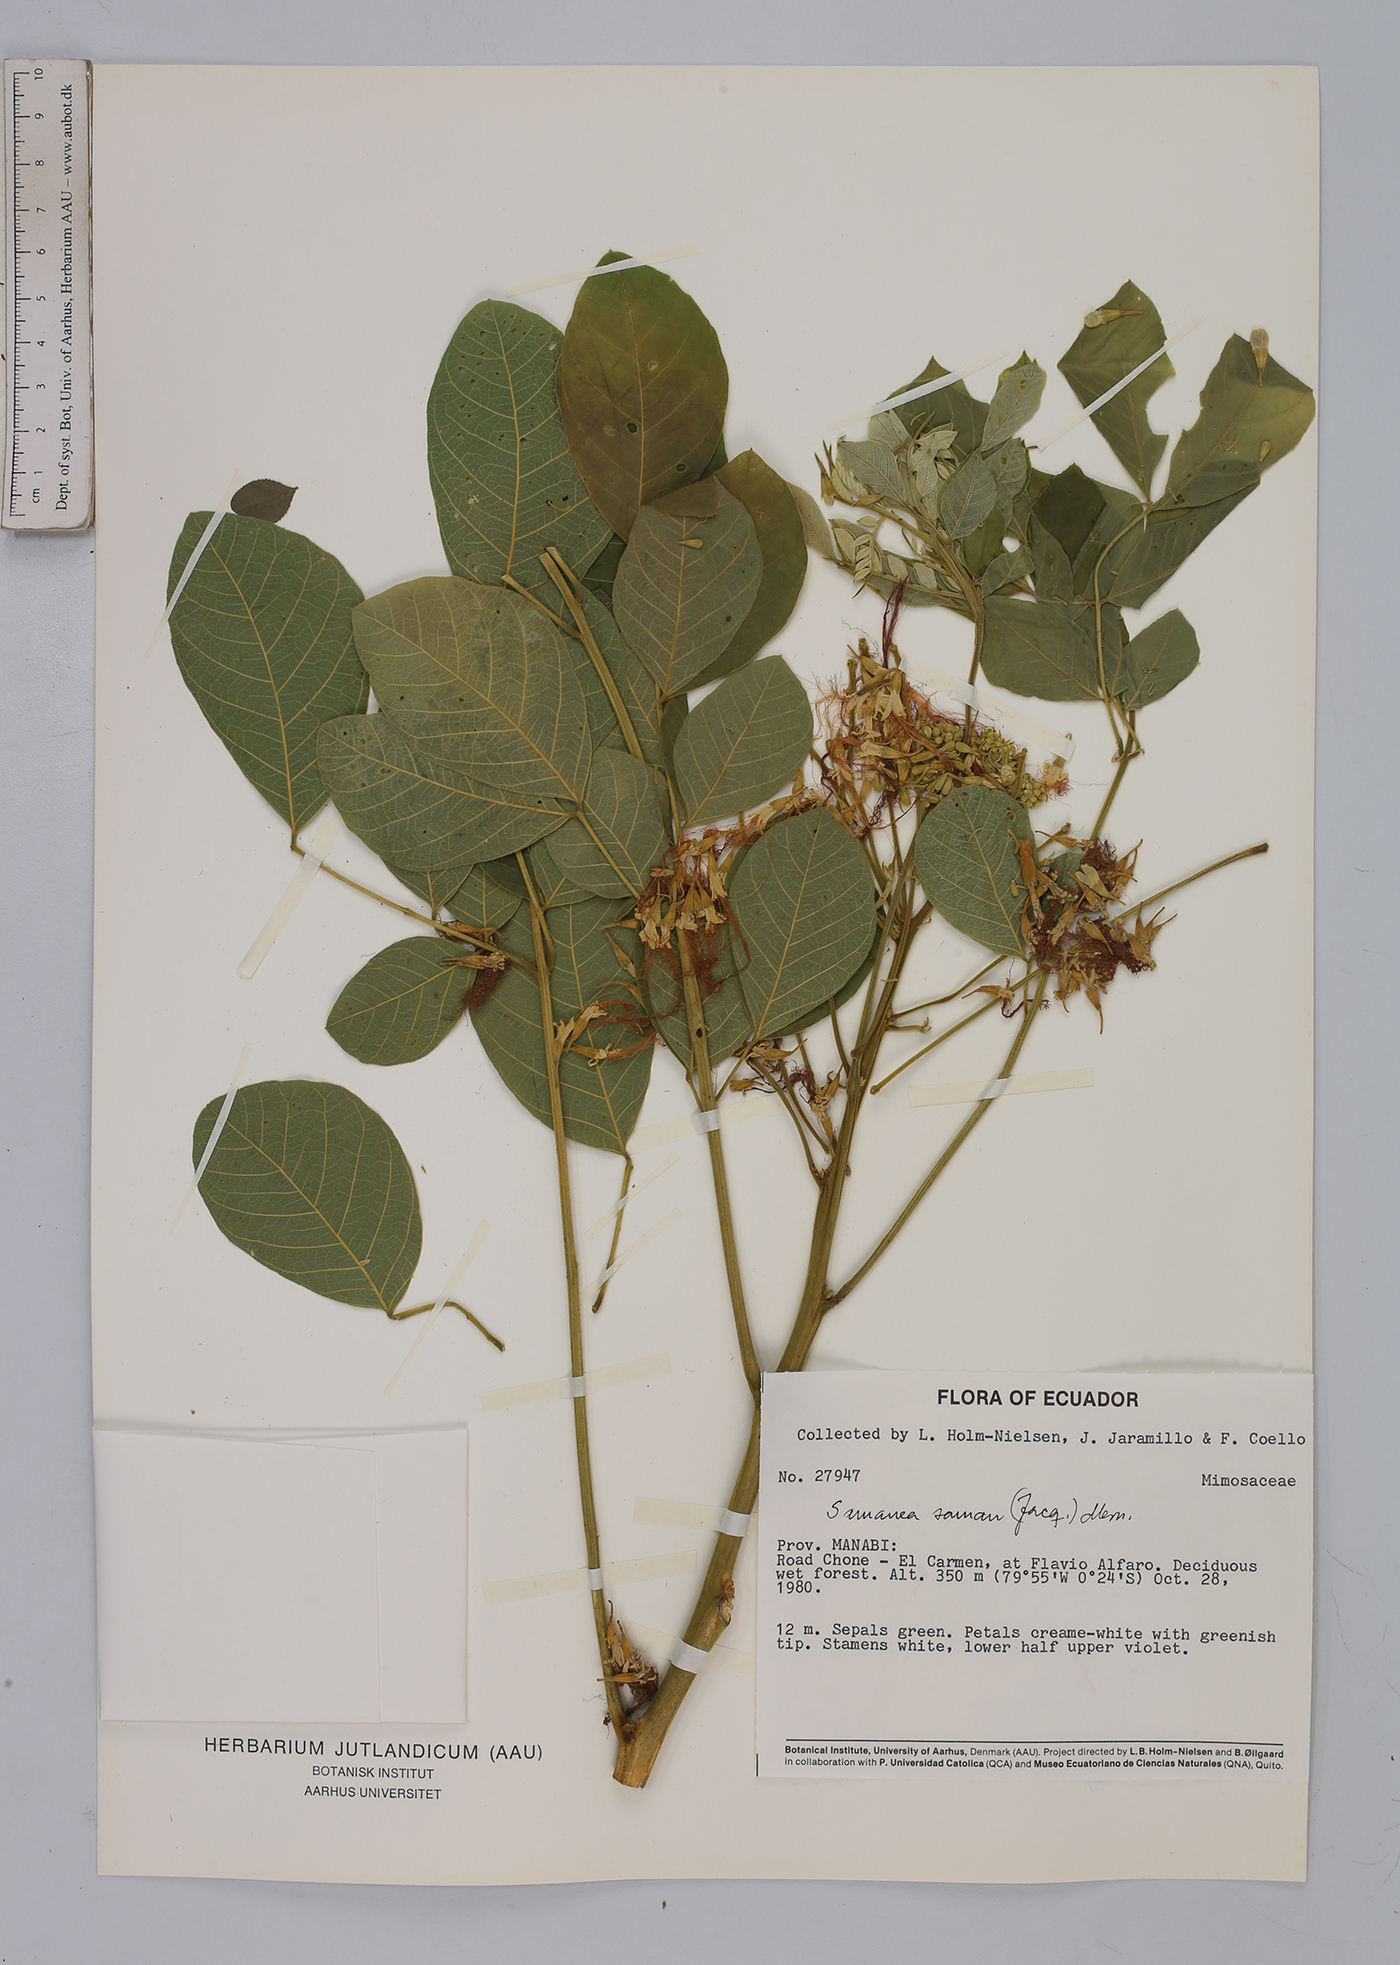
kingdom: Plantae
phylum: Tracheophyta
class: Magnoliopsida
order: Fabales
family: Fabaceae
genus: Samanea
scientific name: Samanea saman
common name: Raintree
